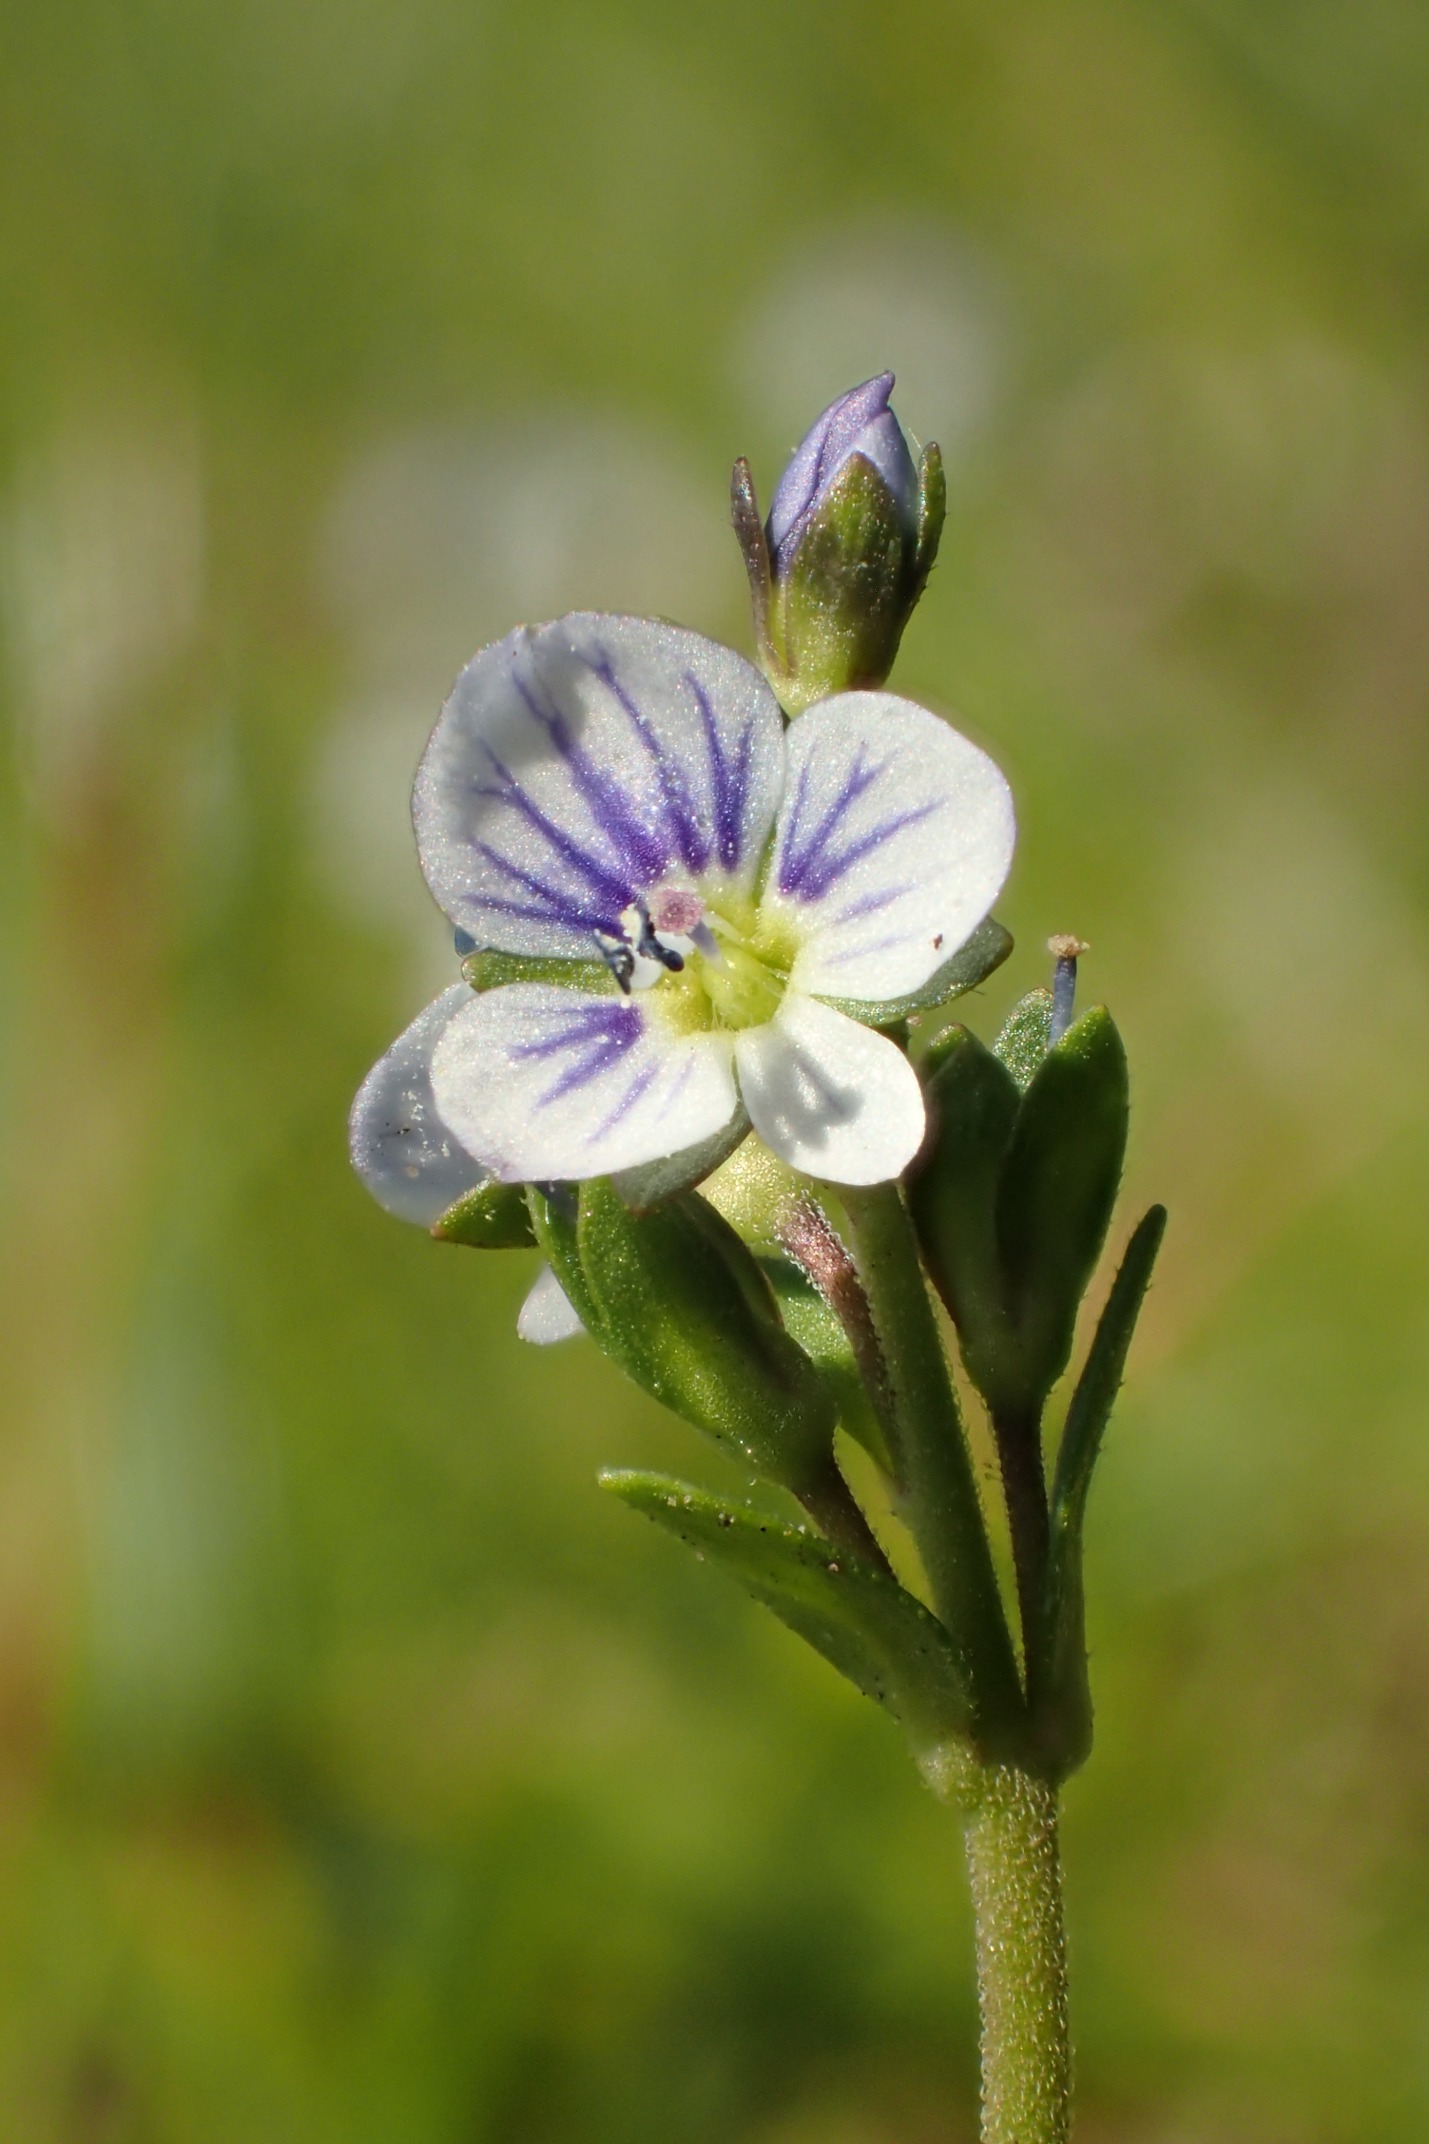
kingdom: Plantae
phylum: Tracheophyta
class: Magnoliopsida
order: Lamiales
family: Plantaginaceae
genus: Veronica
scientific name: Veronica serpyllifolia
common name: Glat ærenpris
